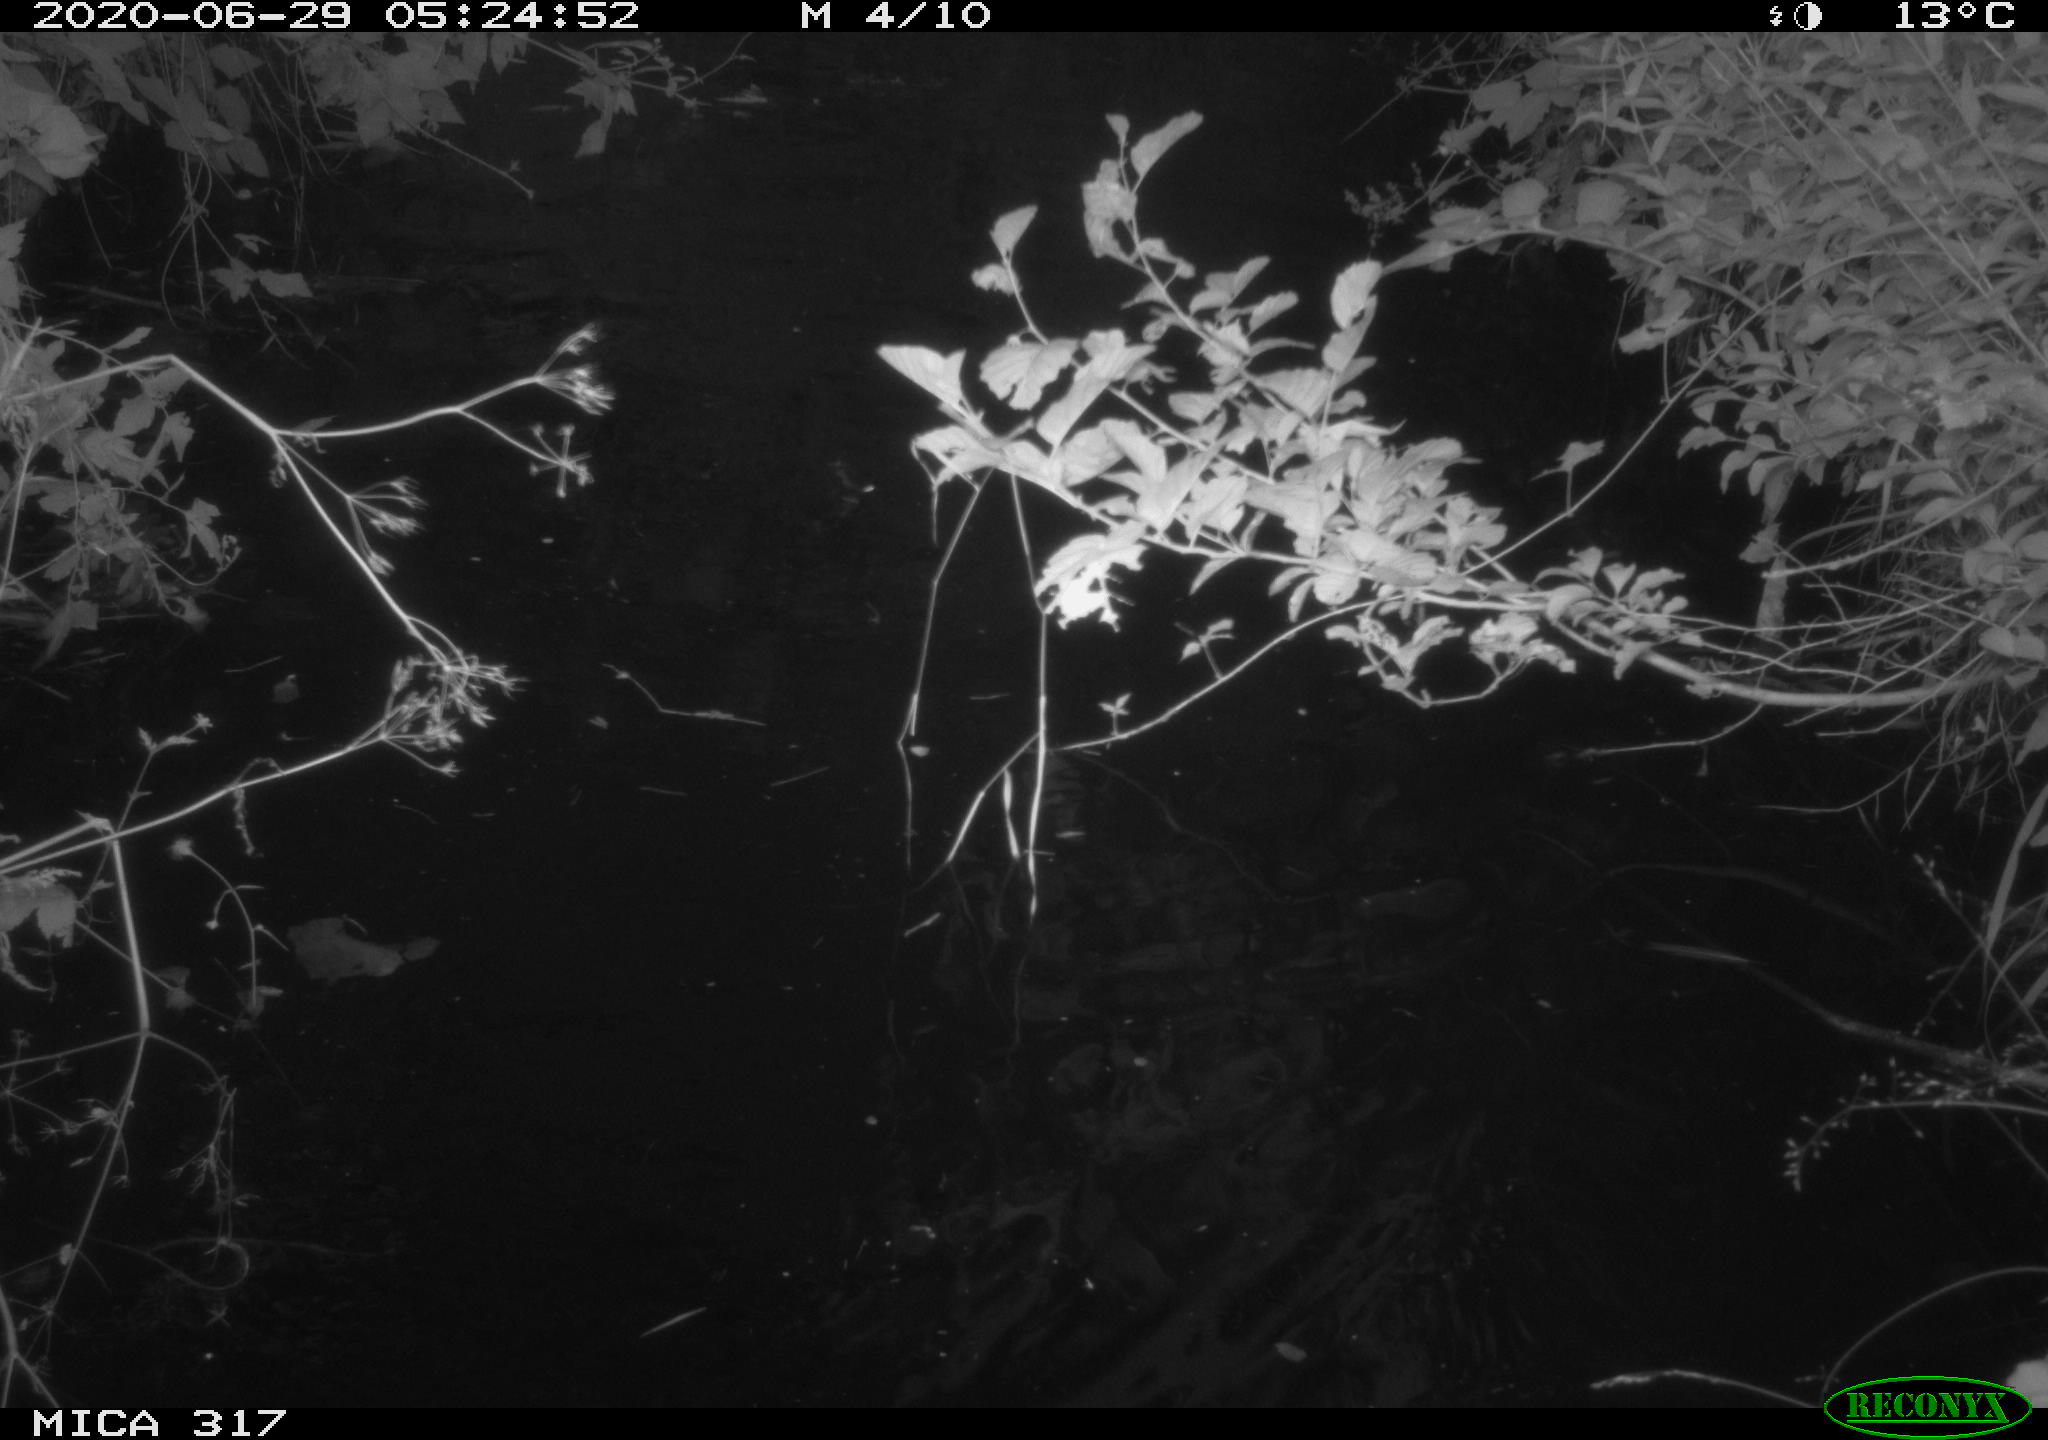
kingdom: Animalia
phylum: Chordata
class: Aves
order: Anseriformes
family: Anatidae
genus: Anas
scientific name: Anas platyrhynchos
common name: Mallard
